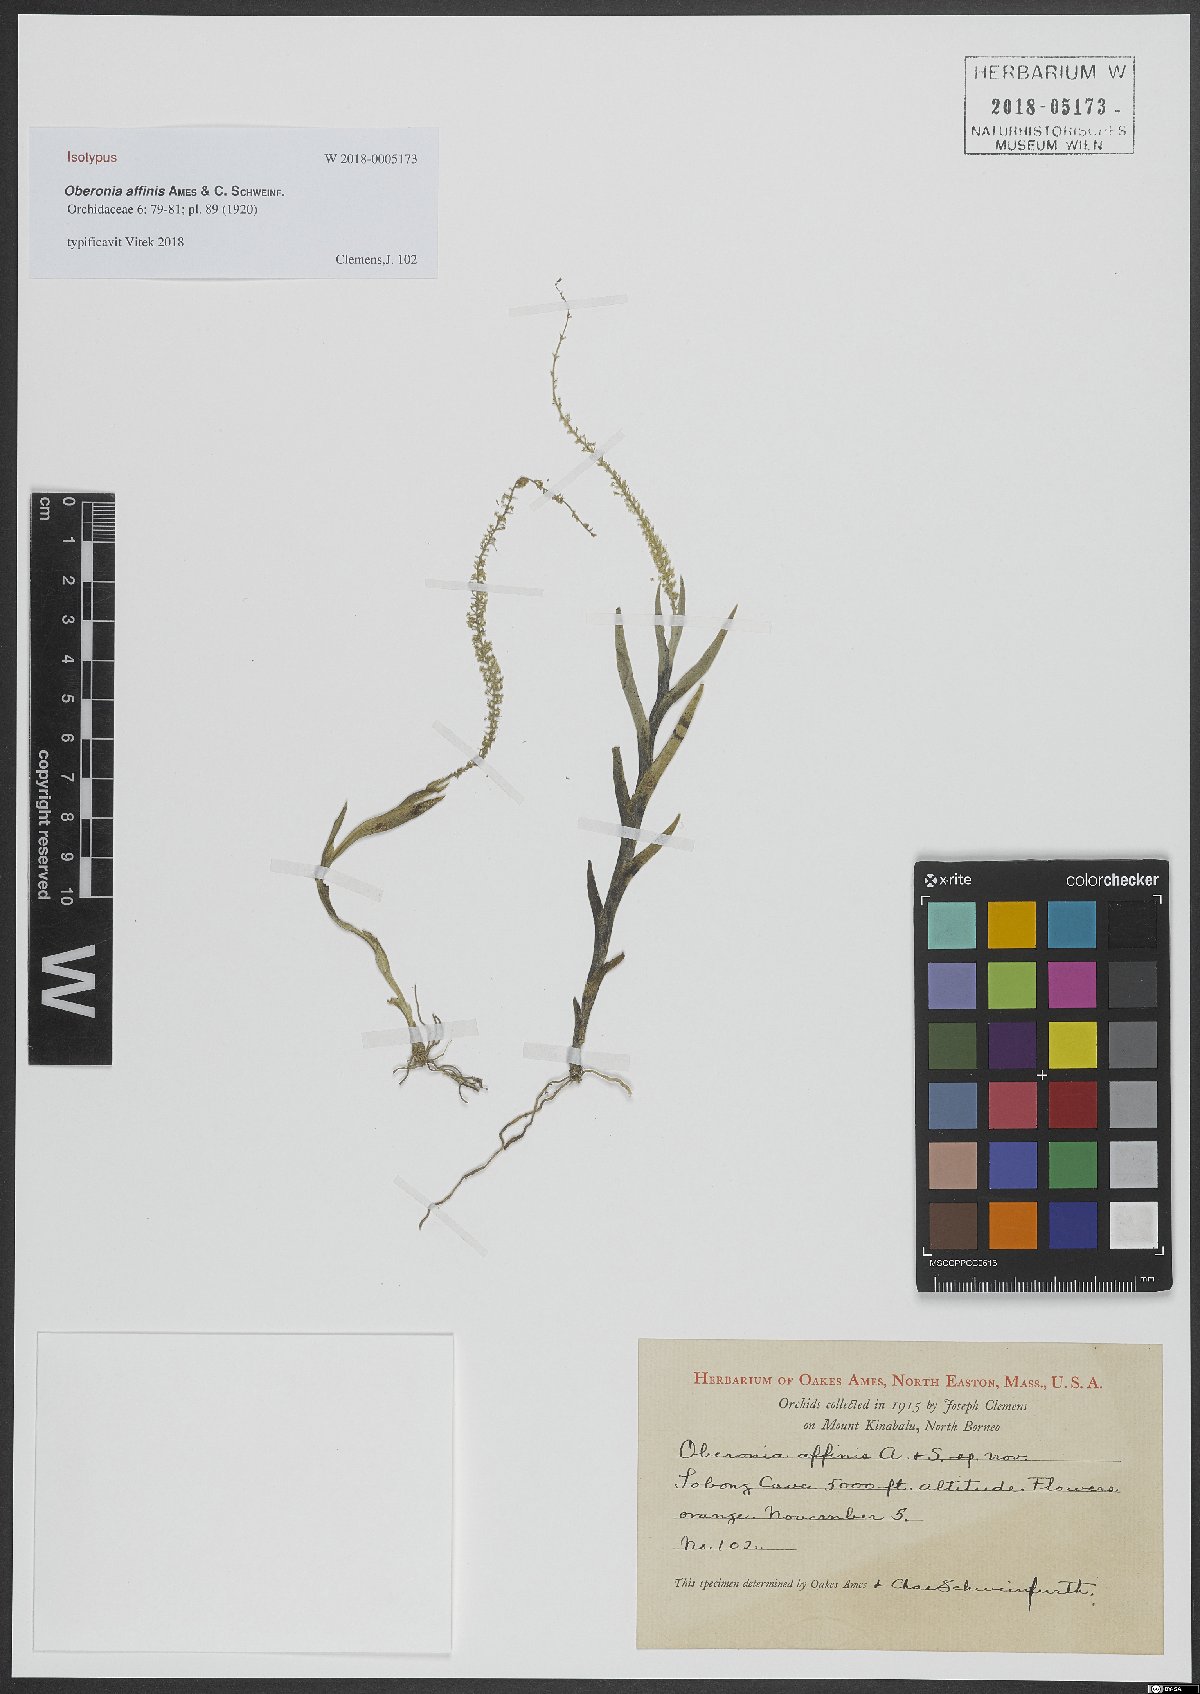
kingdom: Plantae
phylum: Tracheophyta
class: Liliopsida
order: Asparagales
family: Orchidaceae
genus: Oberonia
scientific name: Oberonia equitans
